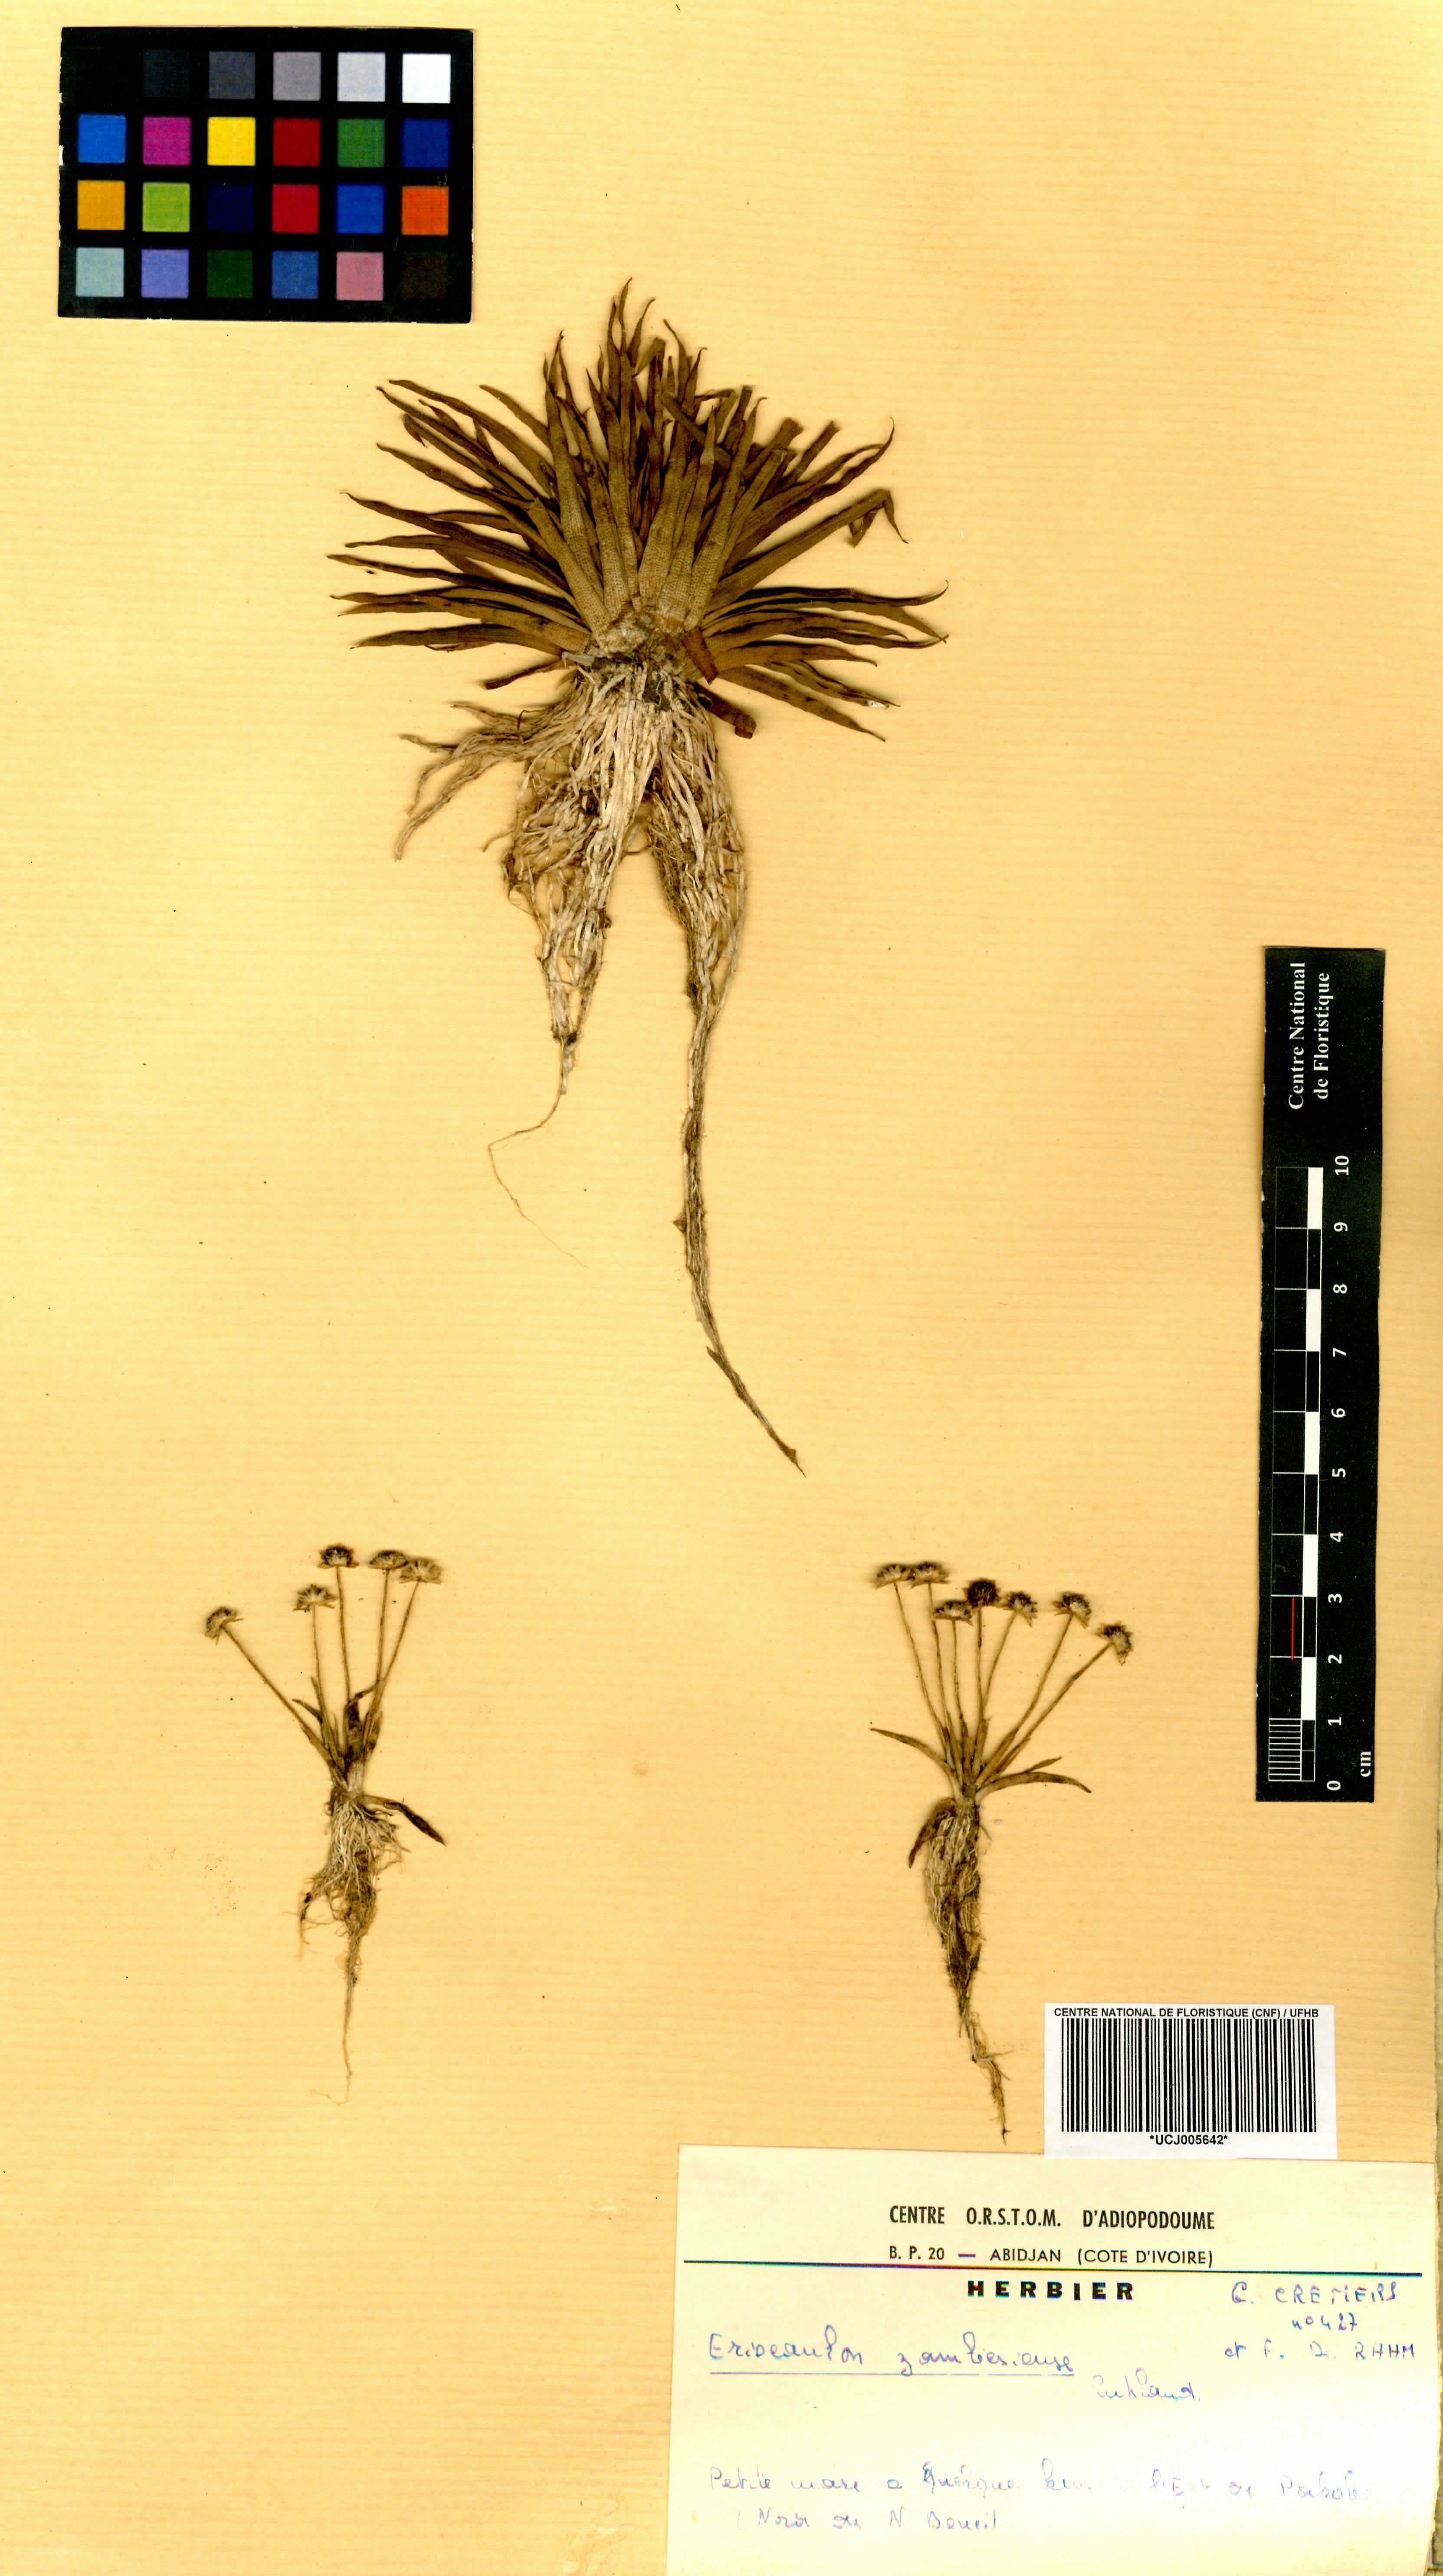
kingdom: Plantae
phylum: Tracheophyta
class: Liliopsida
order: Poales
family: Eriocaulaceae
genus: Eriocaulon
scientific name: Eriocaulon zambesiense
